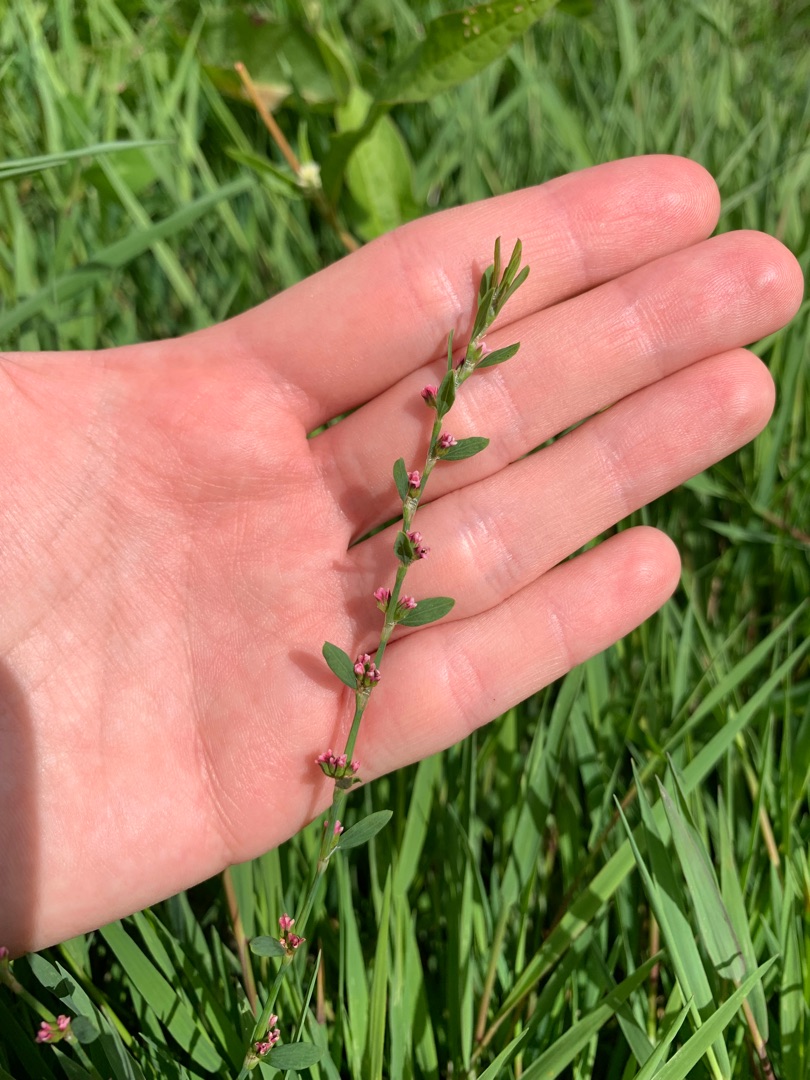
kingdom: Plantae
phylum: Tracheophyta
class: Magnoliopsida
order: Caryophyllales
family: Polygonaceae
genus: Polygonum
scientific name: Polygonum aviculare
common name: Vej-pileurt
